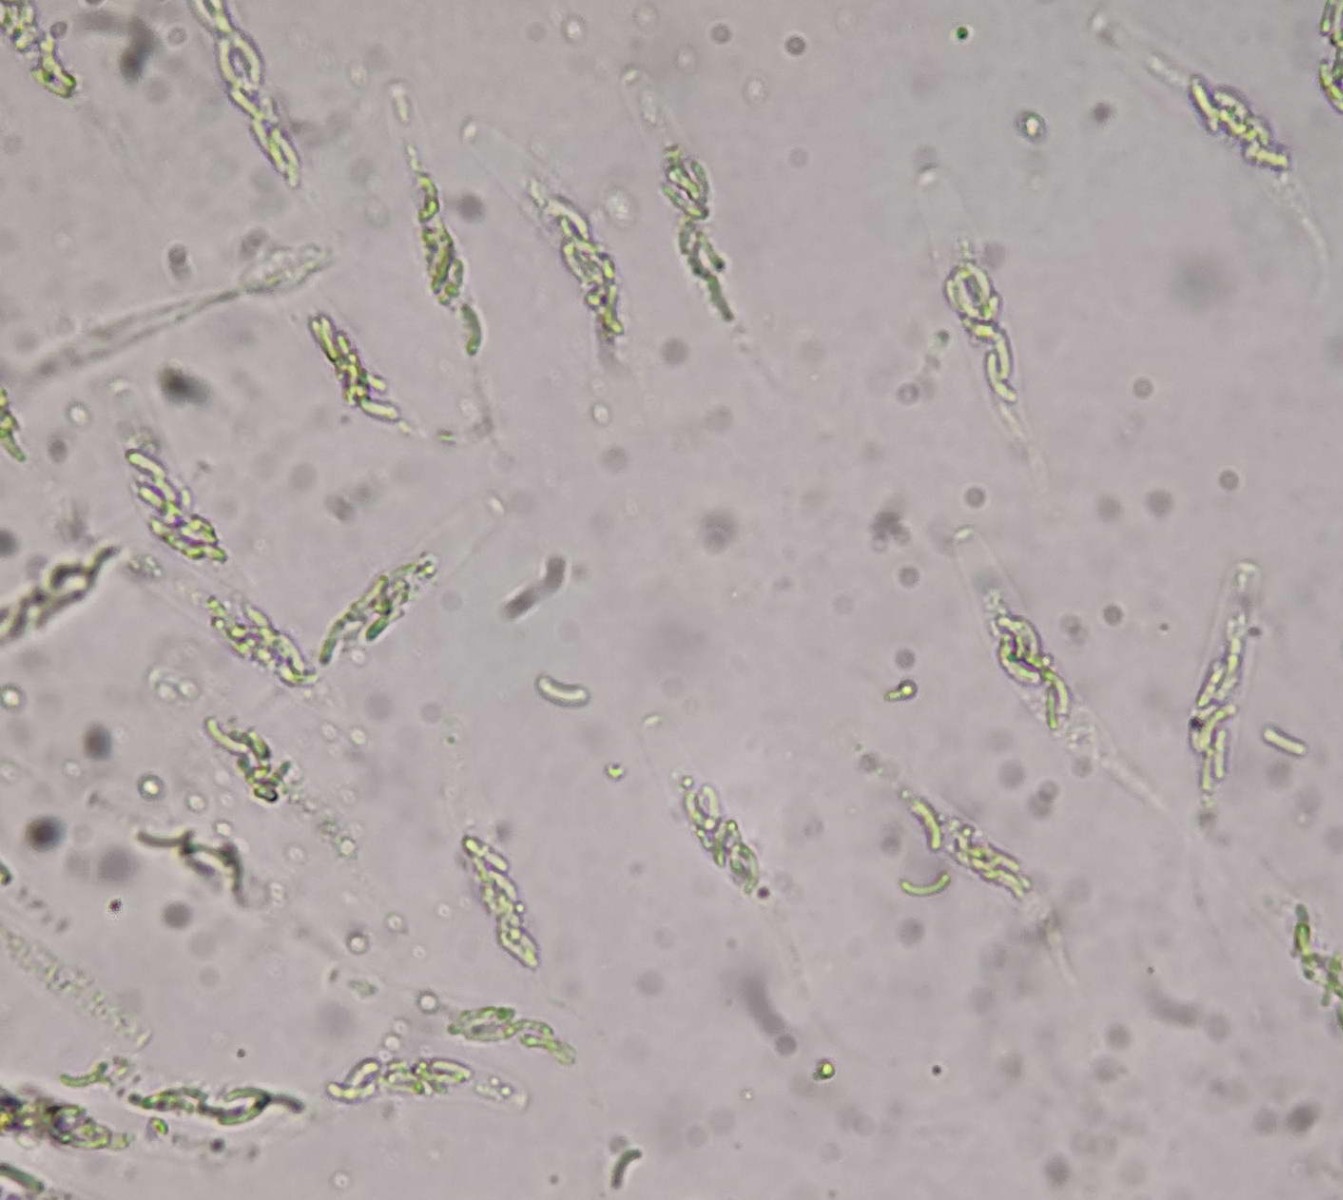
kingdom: Fungi
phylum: Ascomycota
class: Sordariomycetes
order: Xylariales
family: Diatrypaceae
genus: Eutypella
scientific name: Eutypella prunastri
